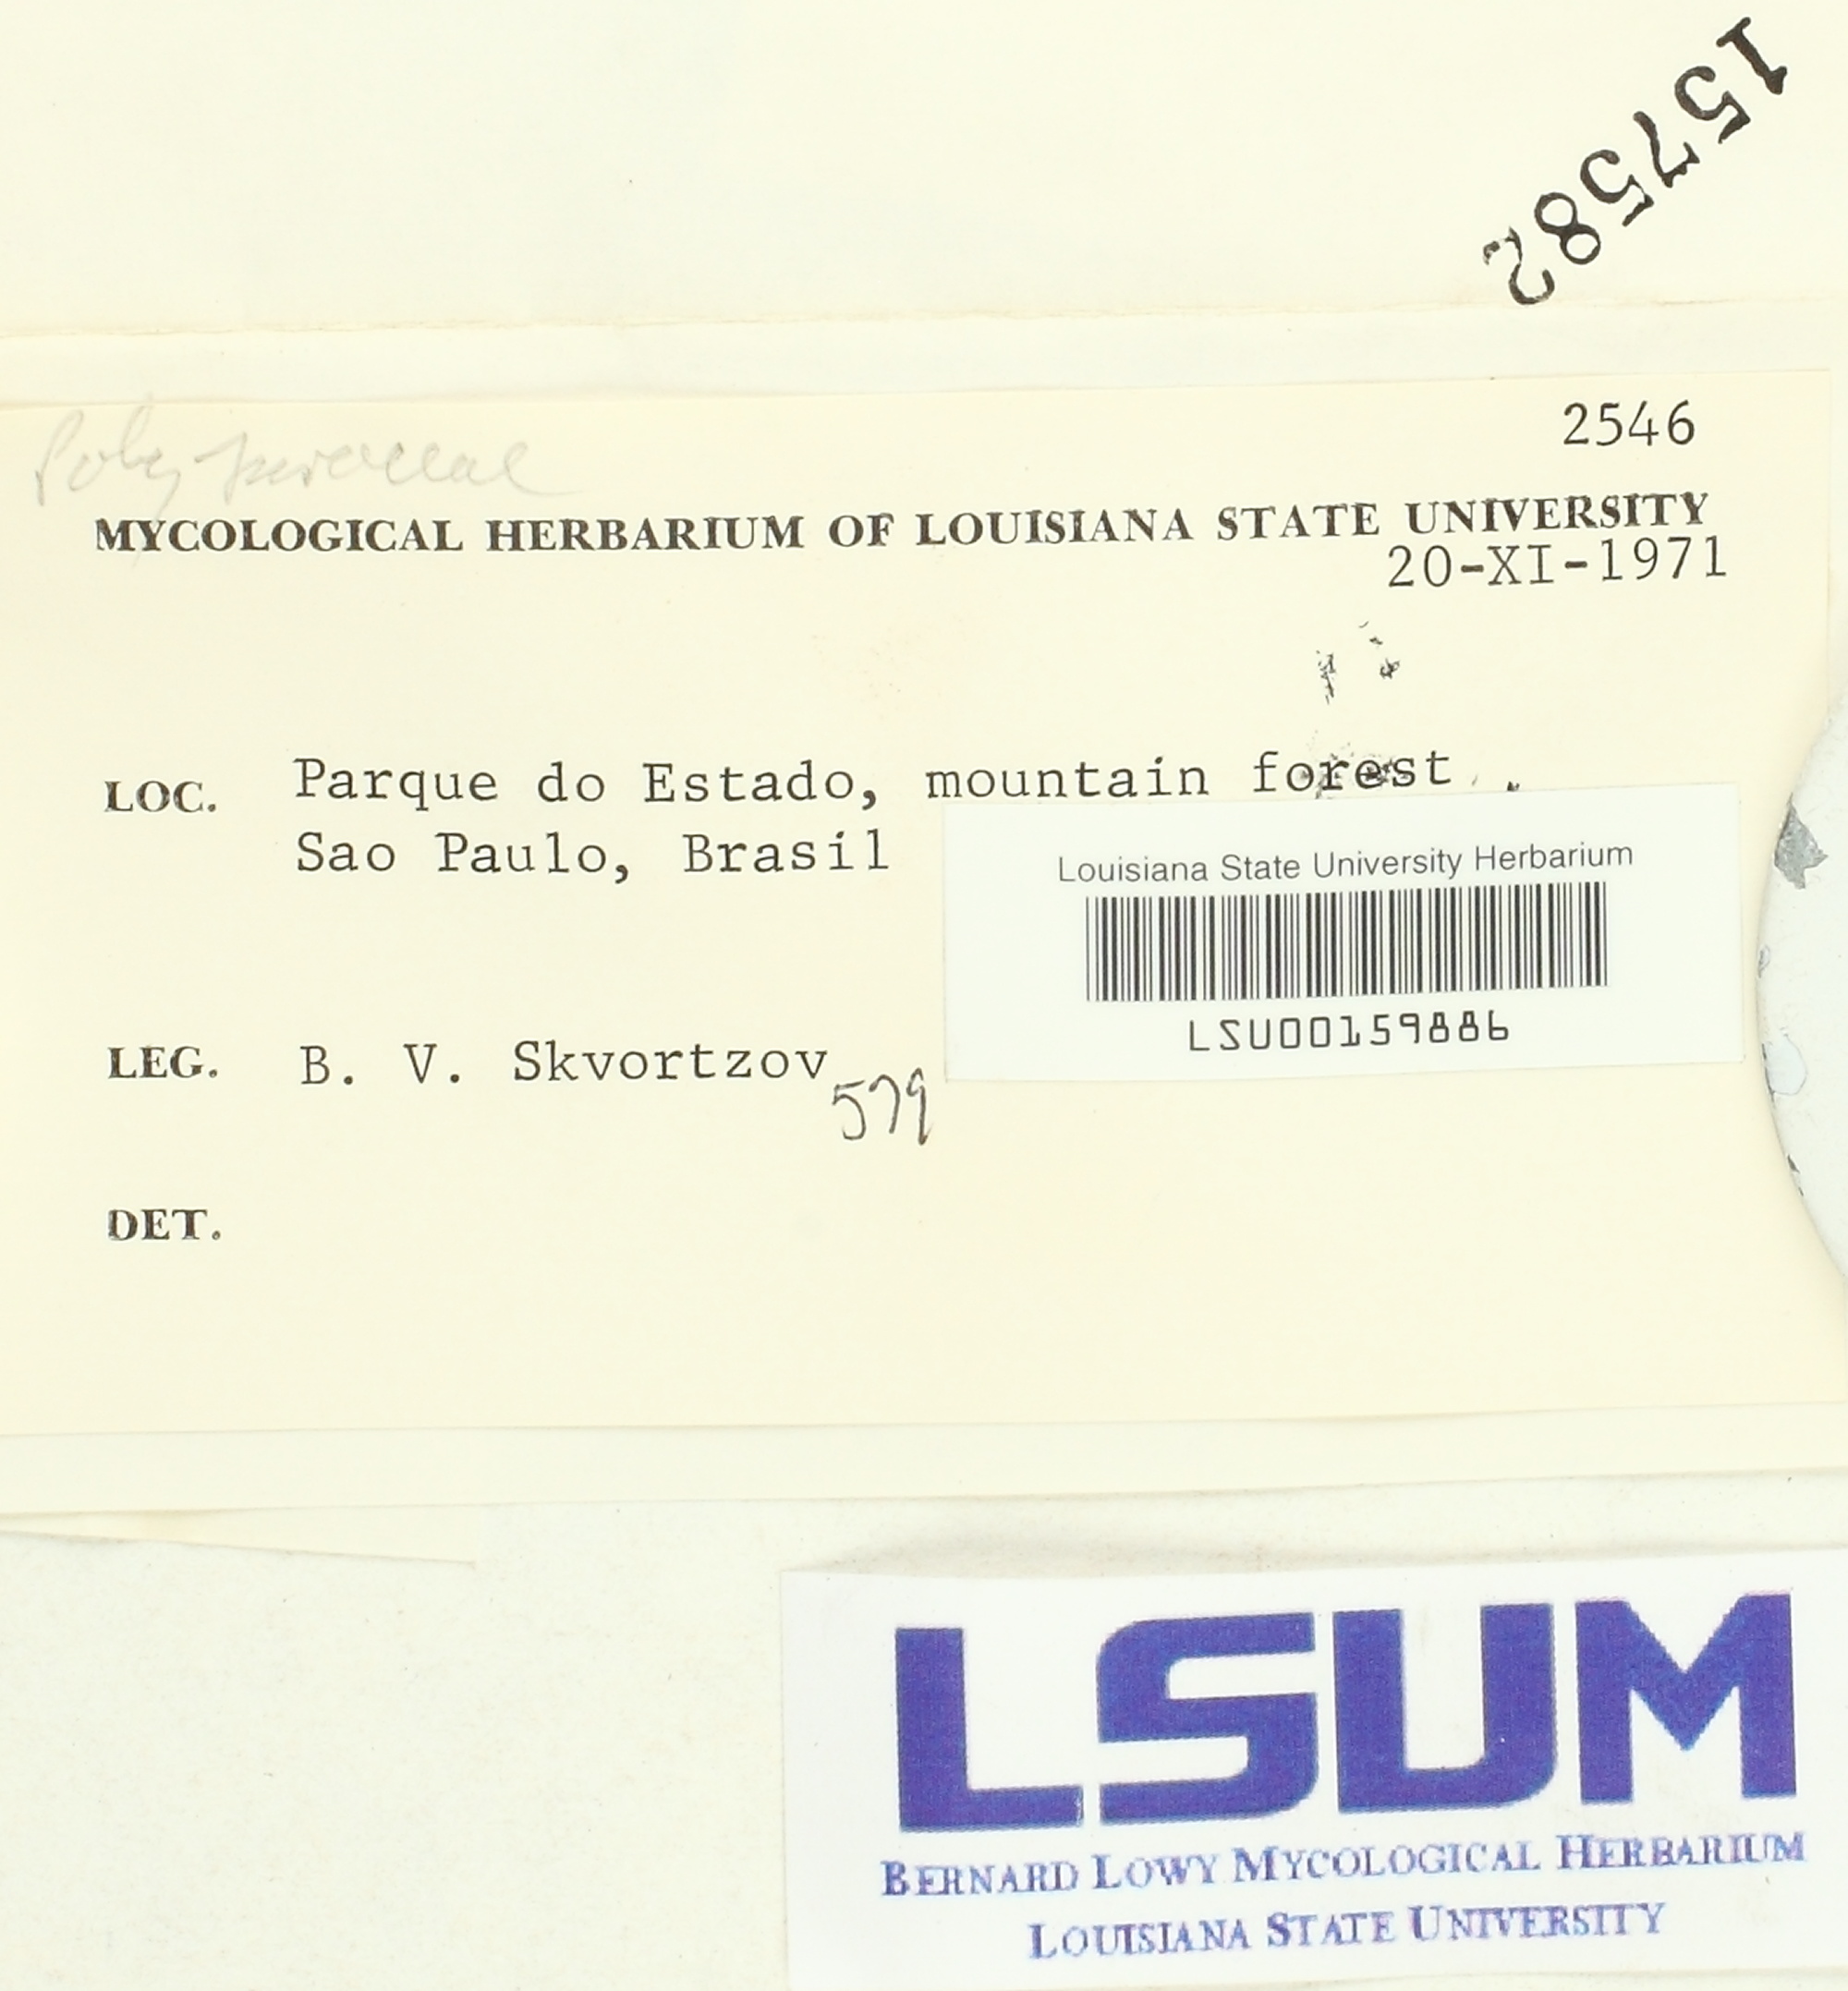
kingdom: Fungi
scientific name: Fungi
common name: Fungi
